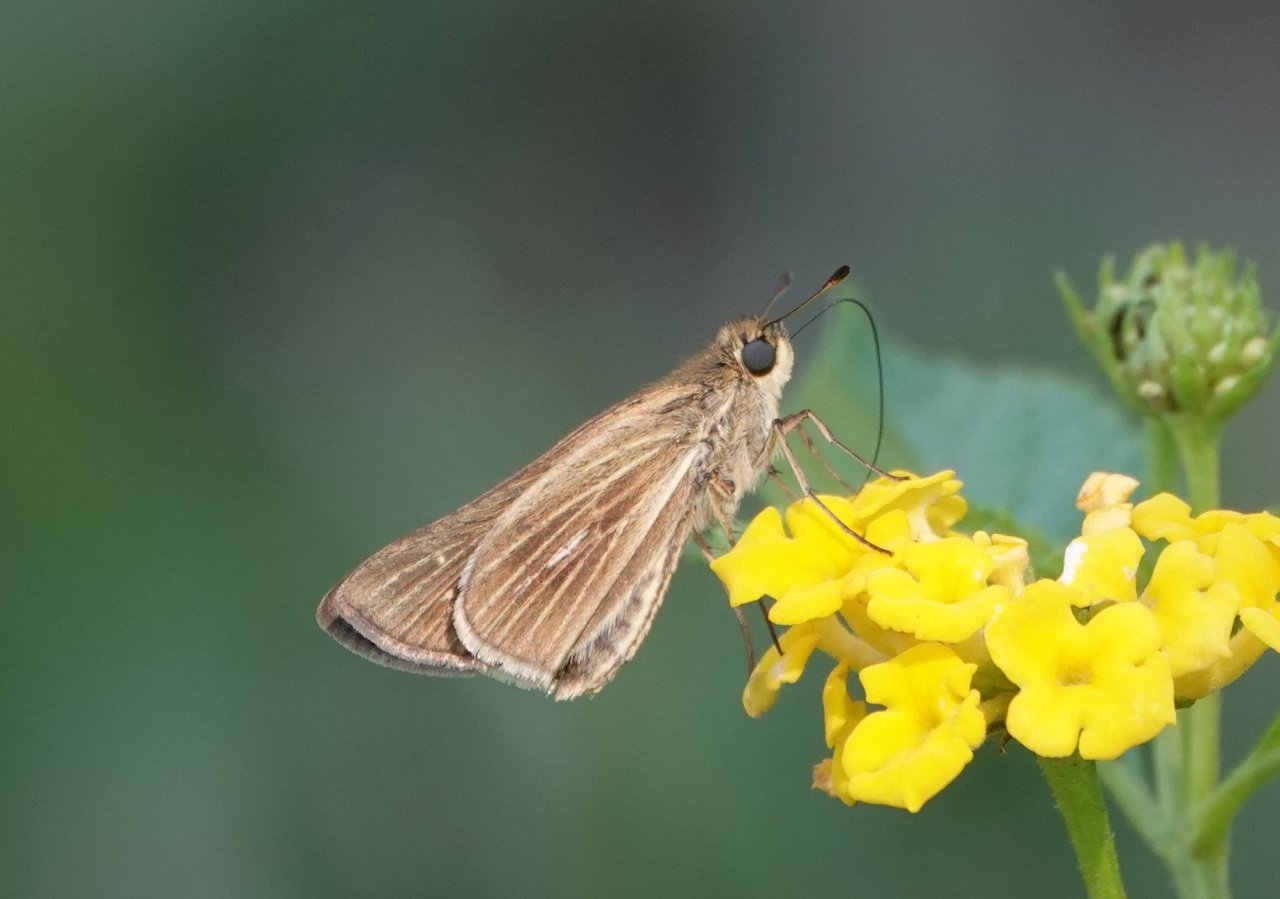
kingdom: Animalia
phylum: Arthropoda
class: Insecta
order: Lepidoptera
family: Hesperiidae
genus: Panoquina
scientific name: Panoquina panoquin
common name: Salt Marsh Skipper
